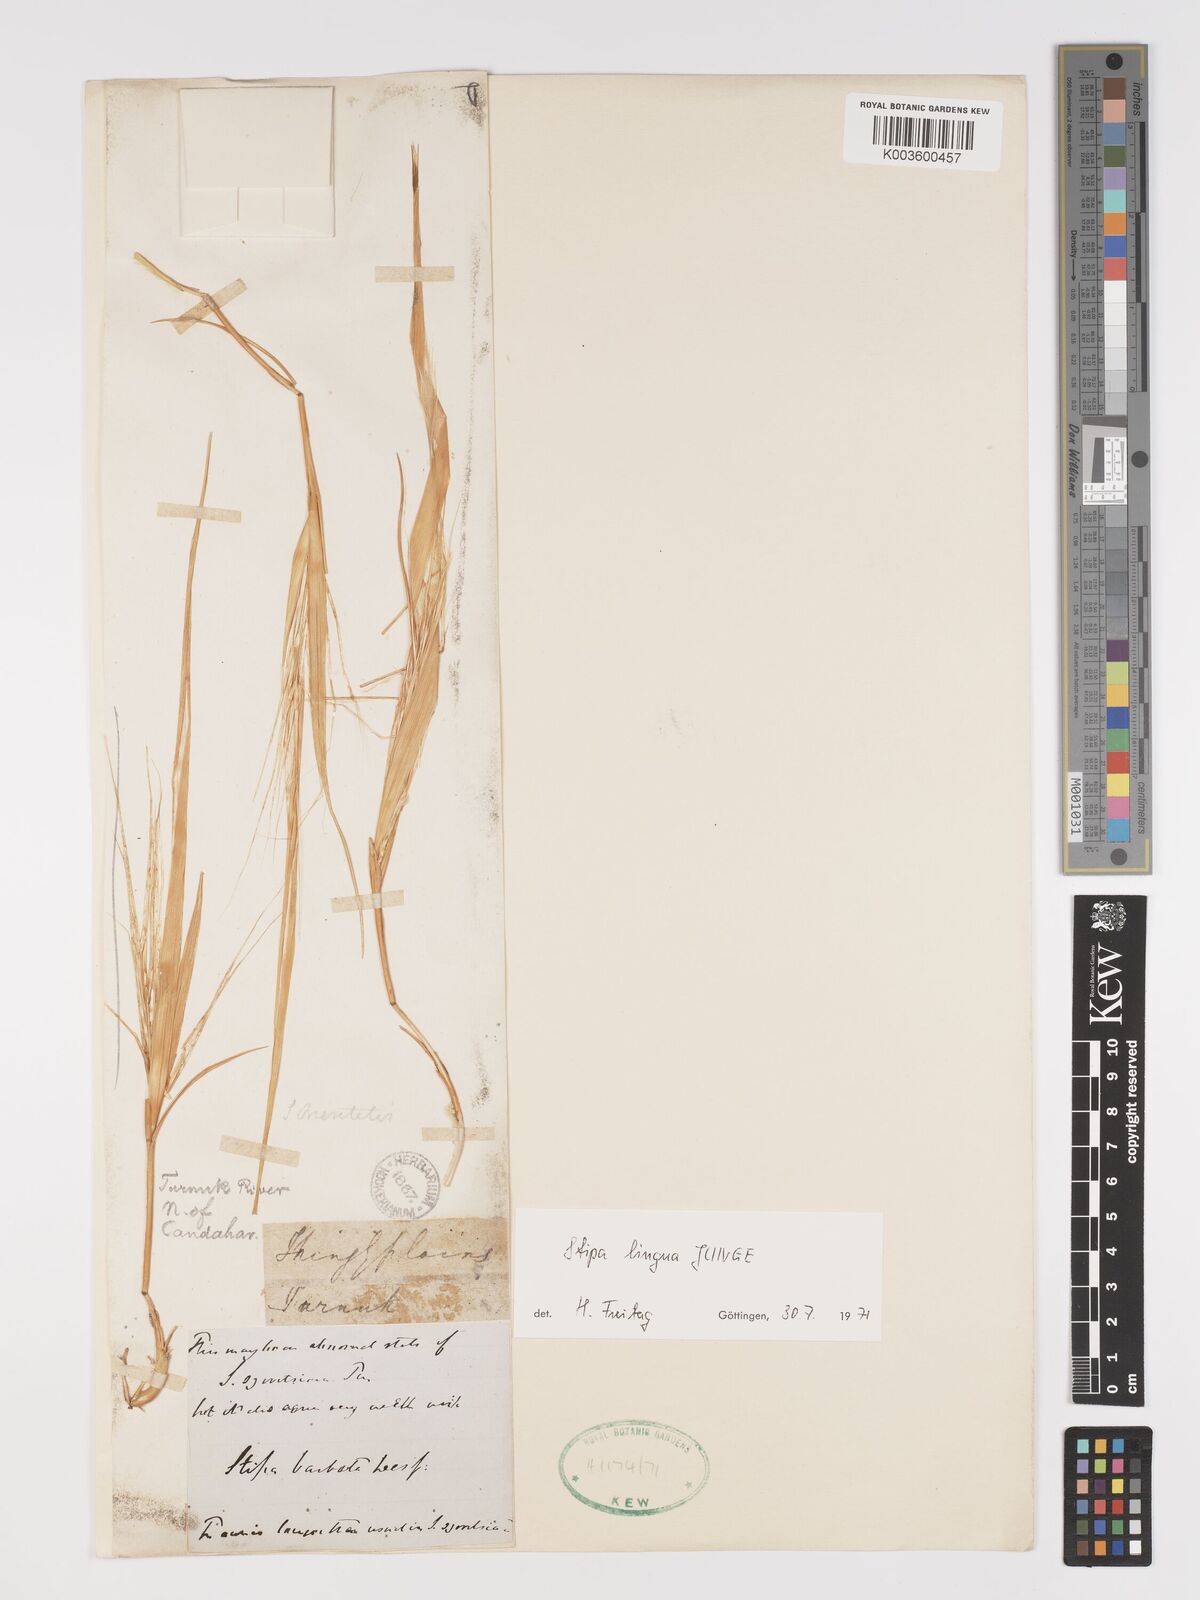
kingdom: Plantae
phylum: Tracheophyta
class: Liliopsida
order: Poales
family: Poaceae
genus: Stipa
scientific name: Stipa lingua
